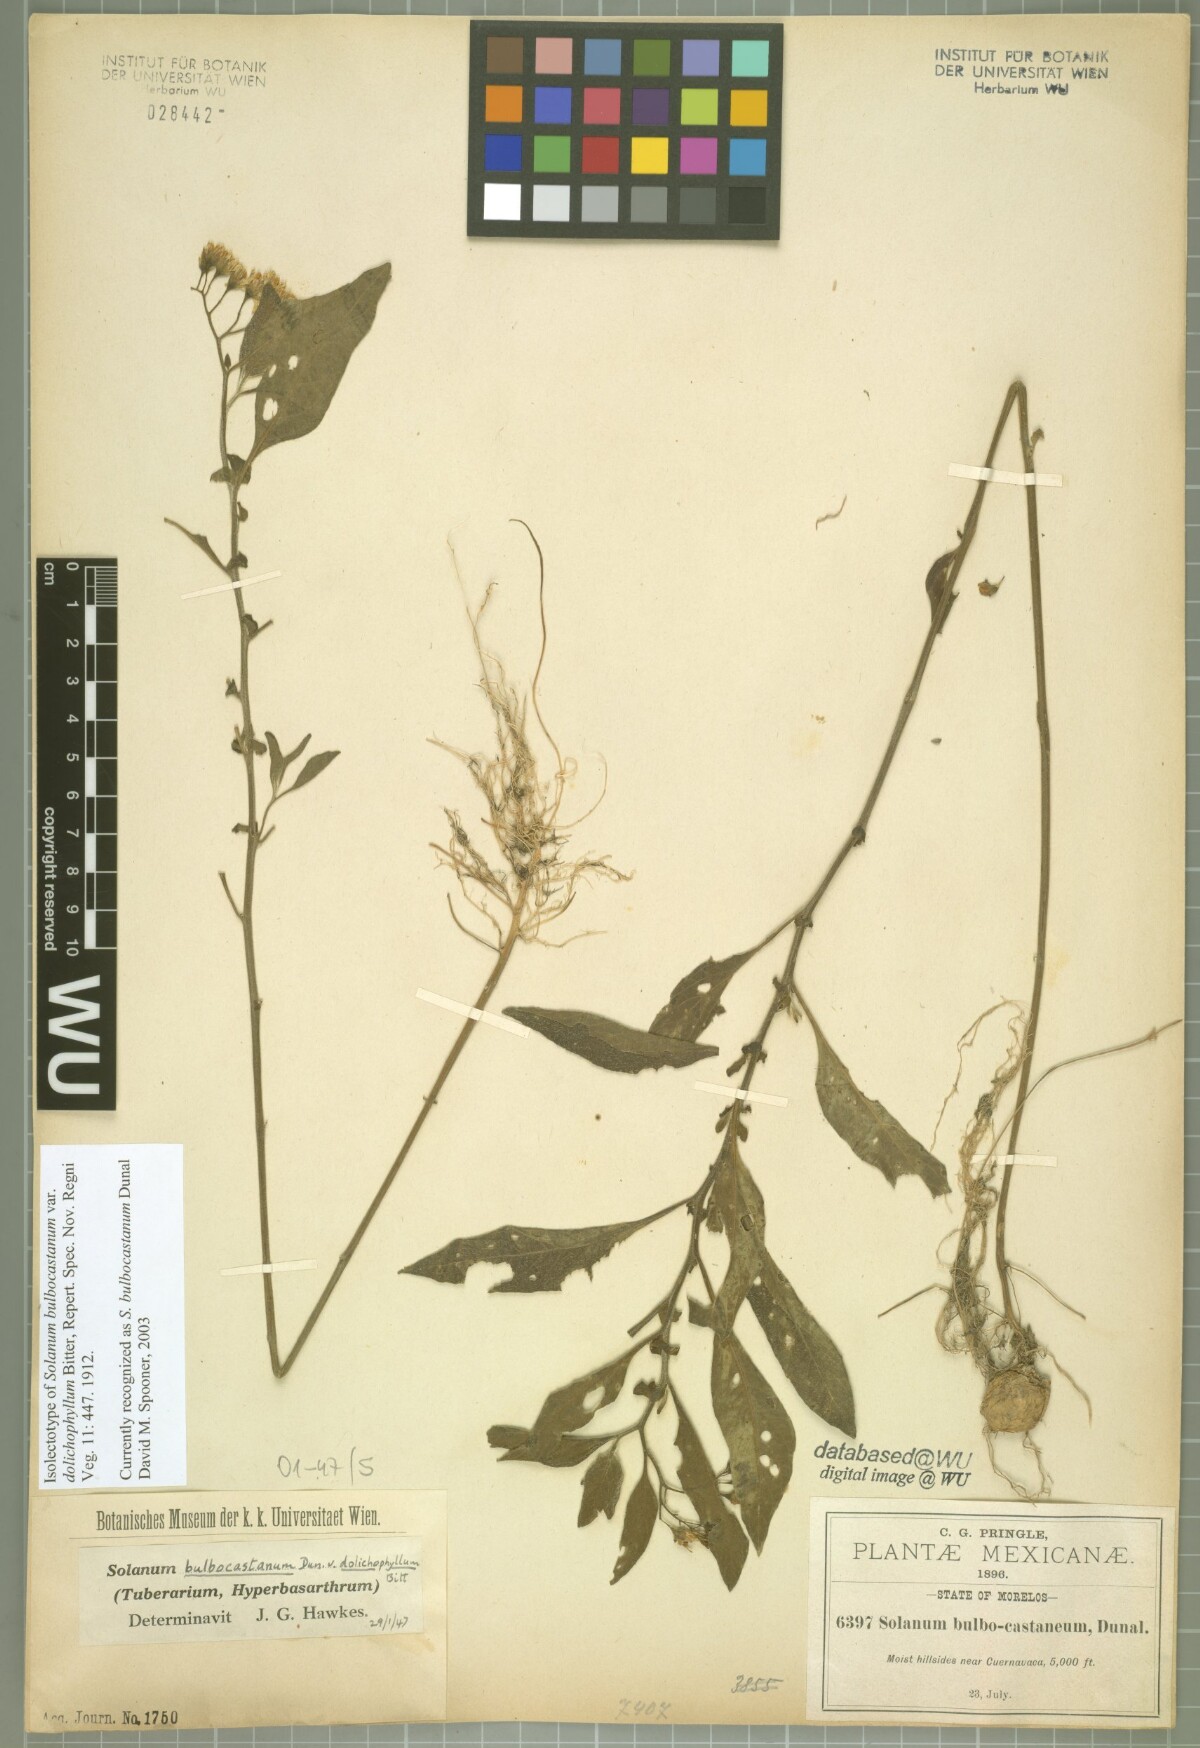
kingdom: Plantae
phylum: Tracheophyta
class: Magnoliopsida
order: Solanales
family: Solanaceae
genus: Solanum
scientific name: Solanum bulbocastanum
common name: Ornamental nightshade
